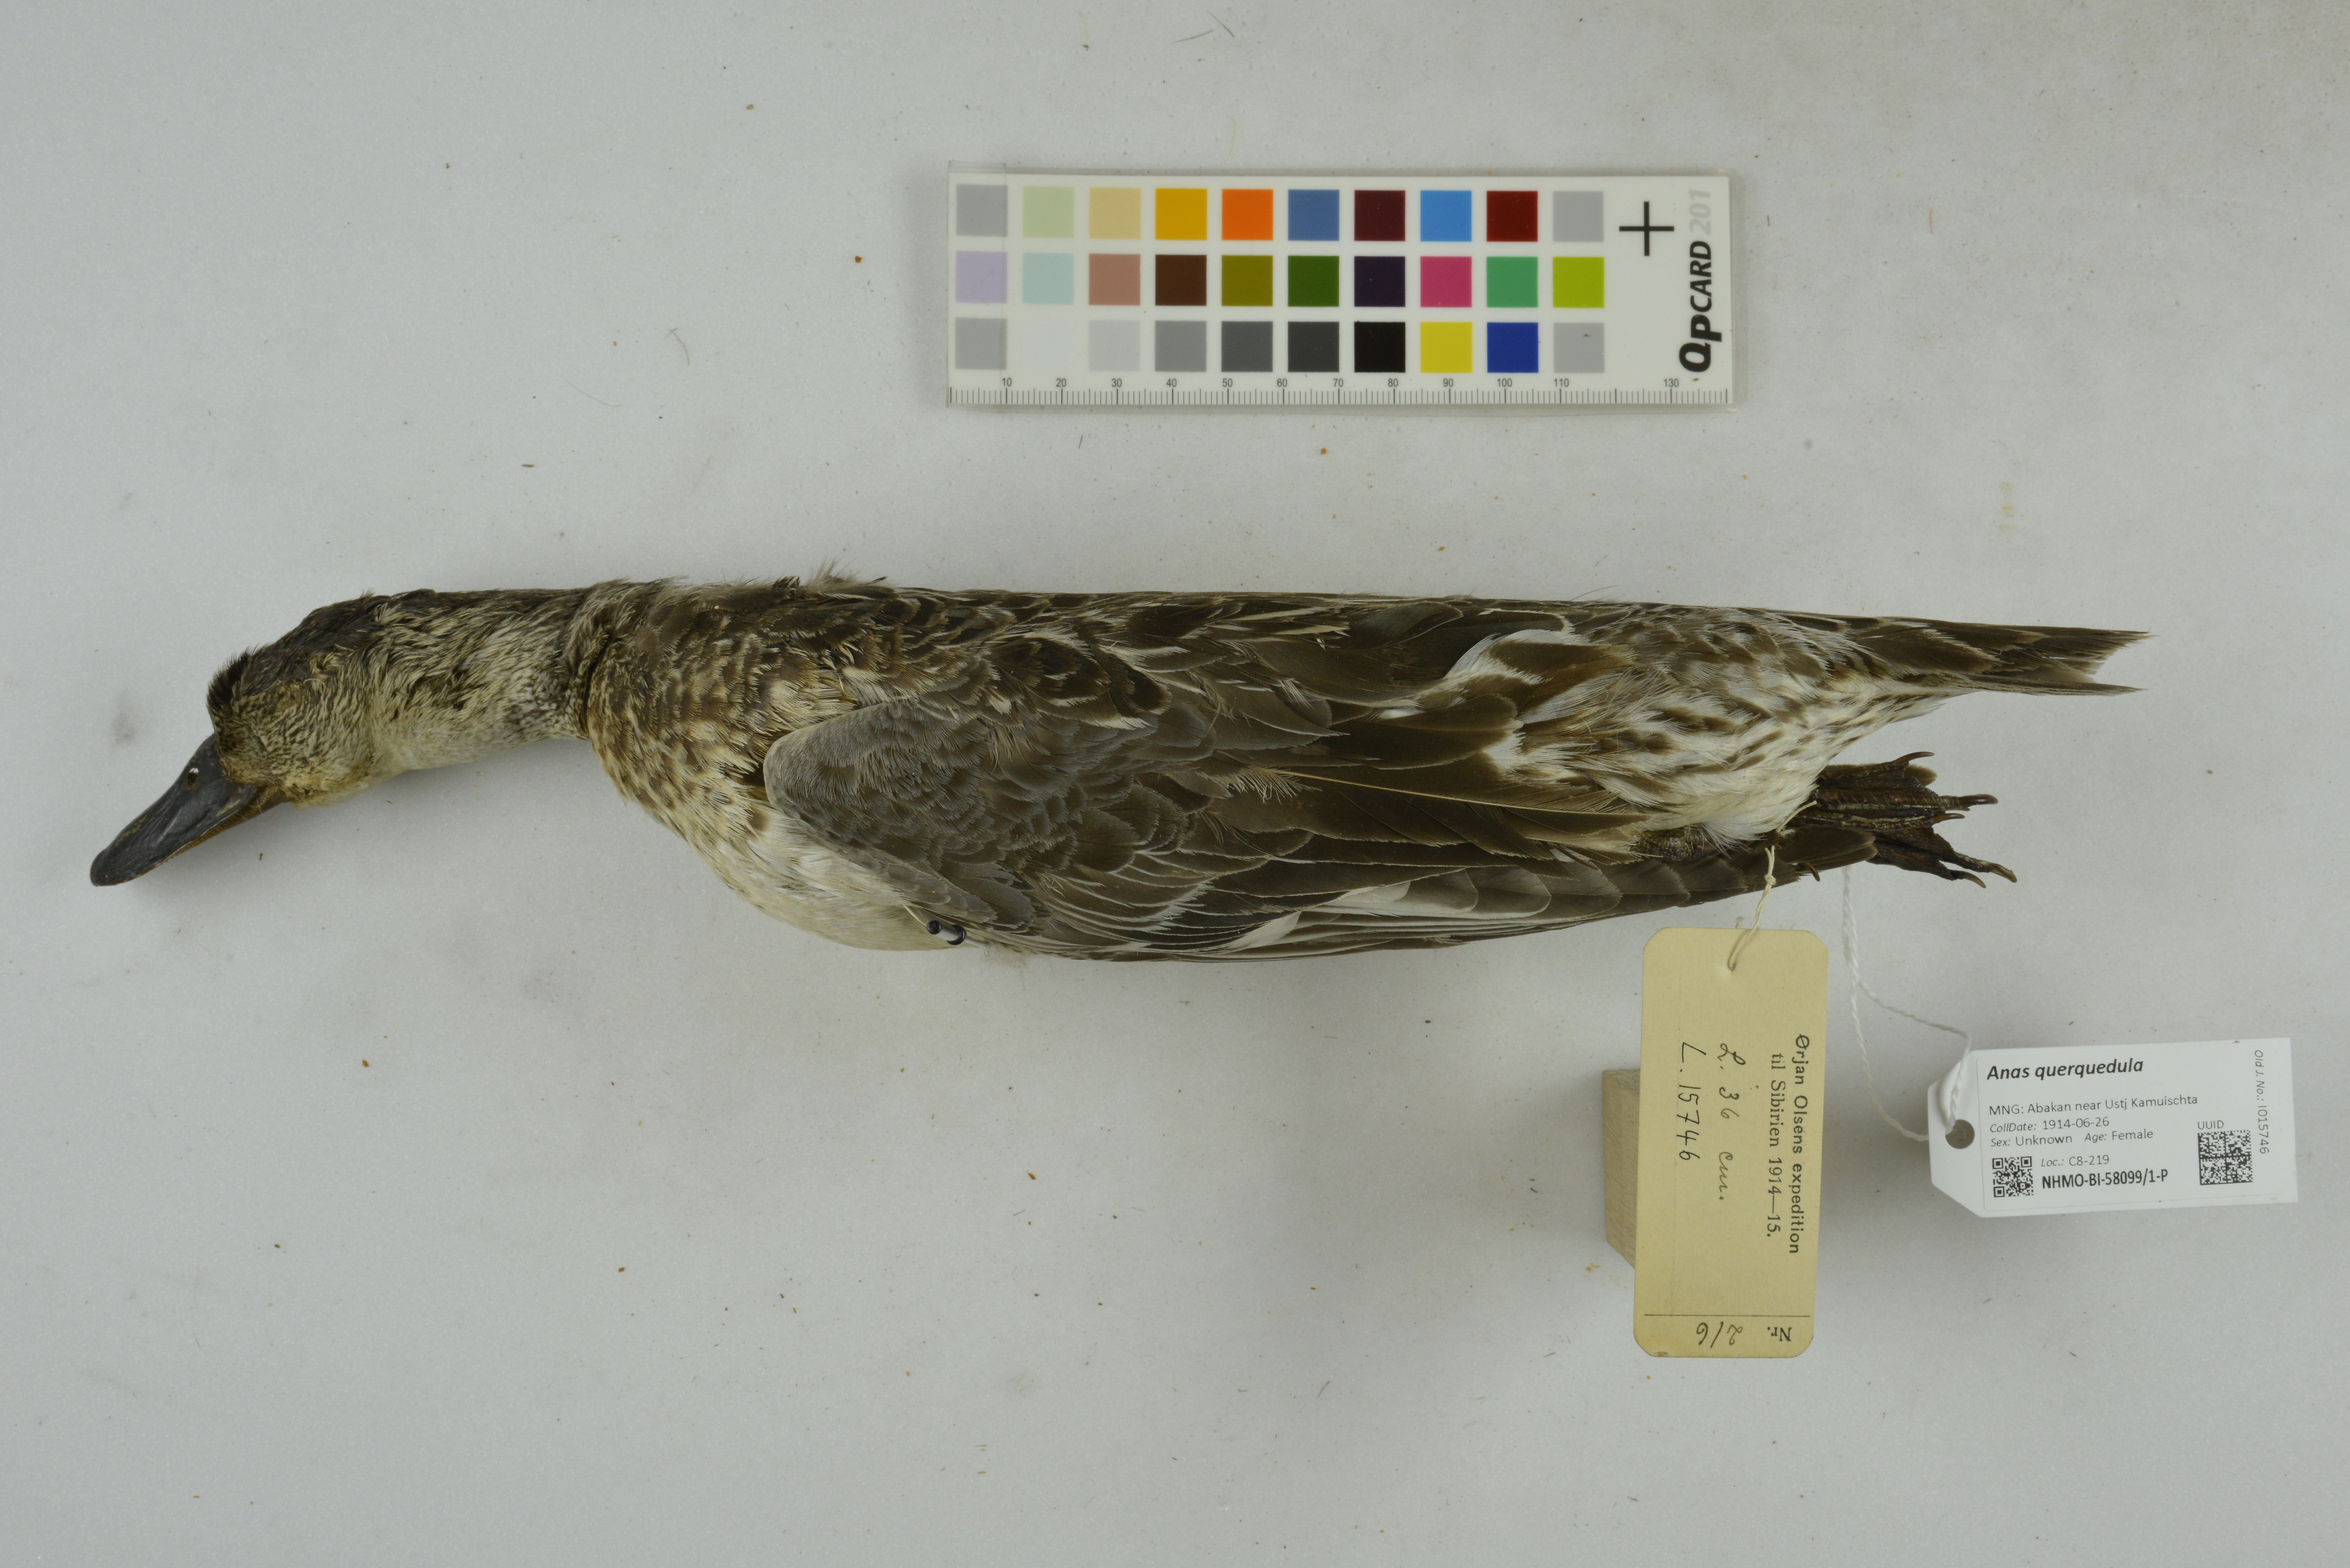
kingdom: Animalia
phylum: Chordata
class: Aves
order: Anseriformes
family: Anatidae
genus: Spatula
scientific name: Spatula querquedula
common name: Garganey
